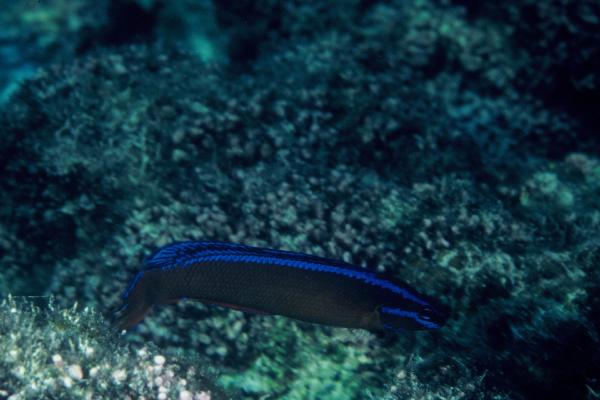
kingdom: Animalia
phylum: Chordata
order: Perciformes
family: Pseudochromidae
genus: Pseudochromis
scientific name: Pseudochromis aldabraensis
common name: Orange dottyback
